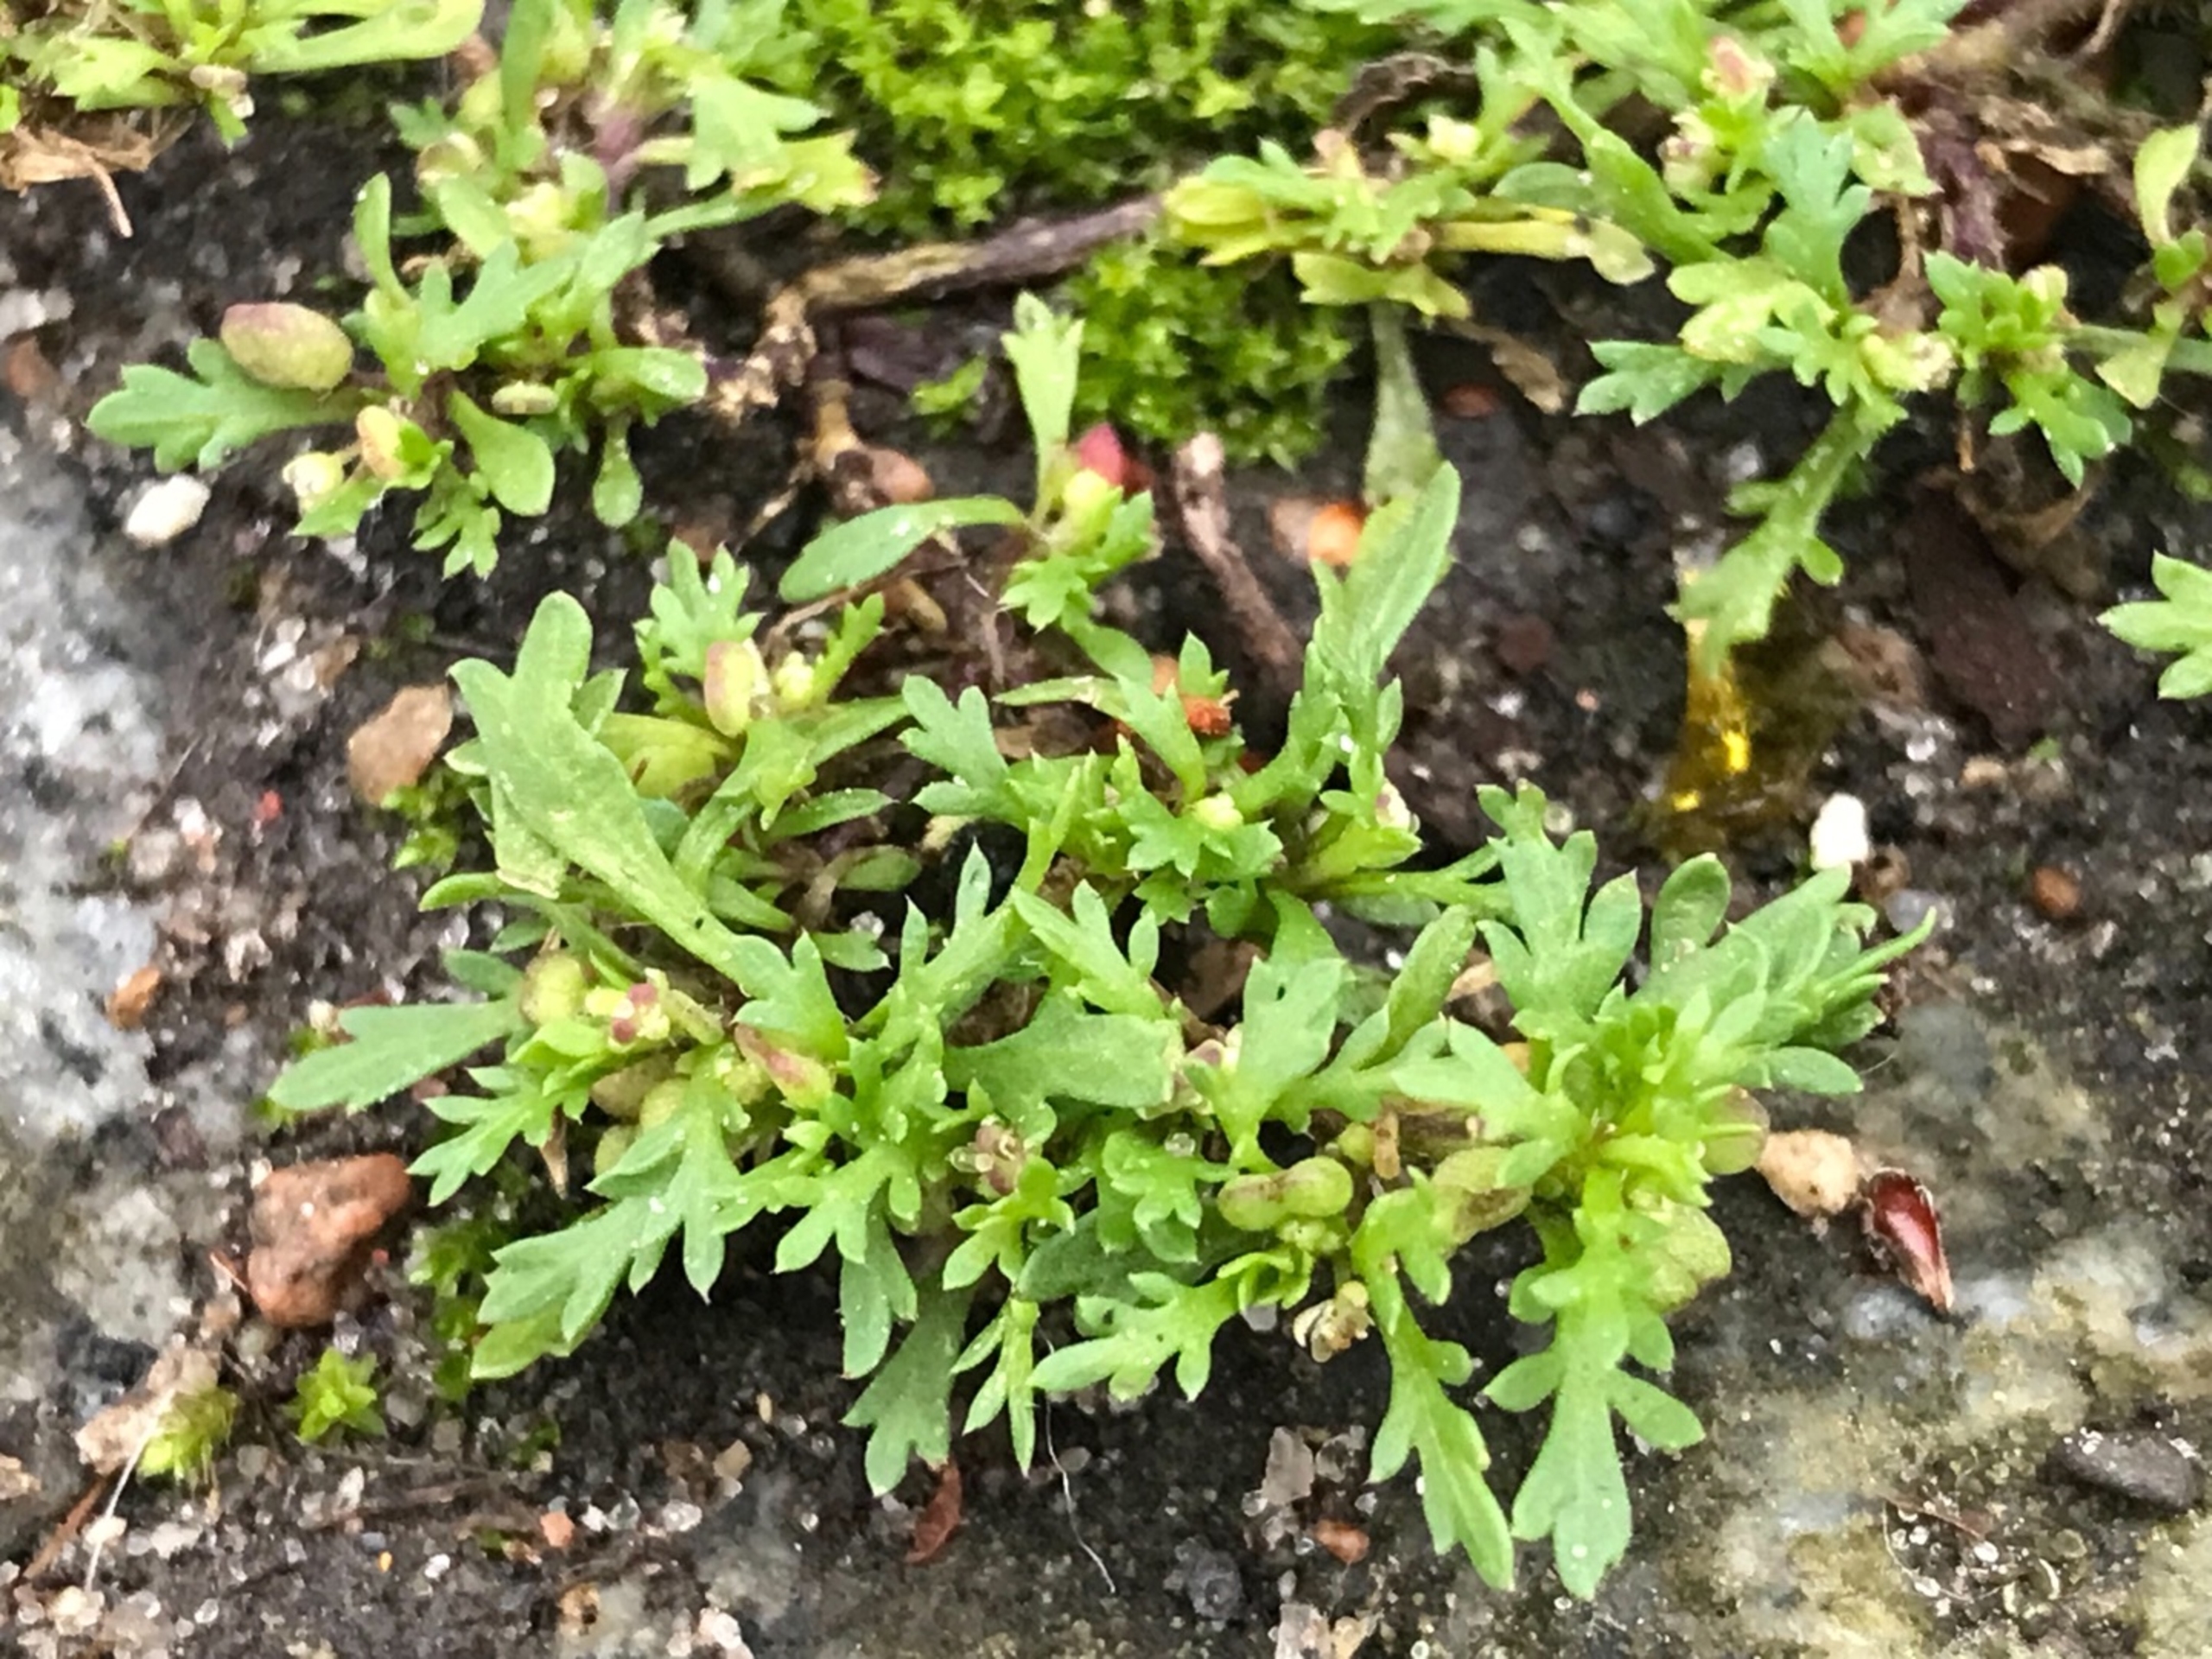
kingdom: Plantae
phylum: Tracheophyta
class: Magnoliopsida
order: Brassicales
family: Brassicaceae
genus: Lepidium
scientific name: Lepidium didymum
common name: Liden ravnefod
